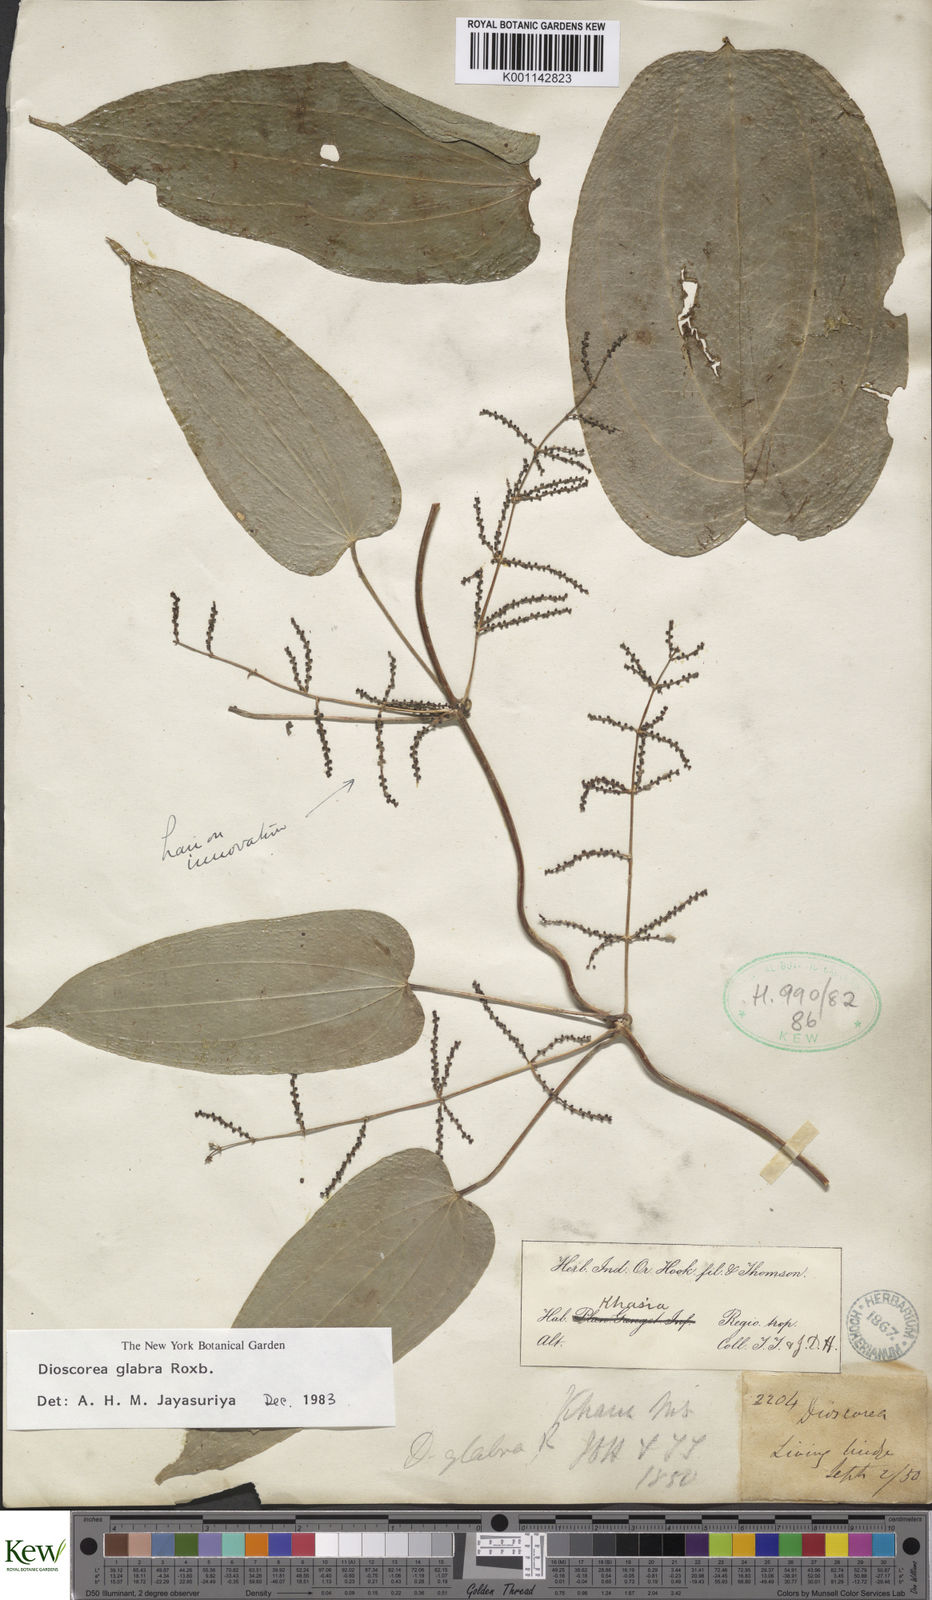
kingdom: Plantae
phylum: Tracheophyta
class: Liliopsida
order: Dioscoreales
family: Dioscoreaceae
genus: Dioscorea
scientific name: Dioscorea glabra
